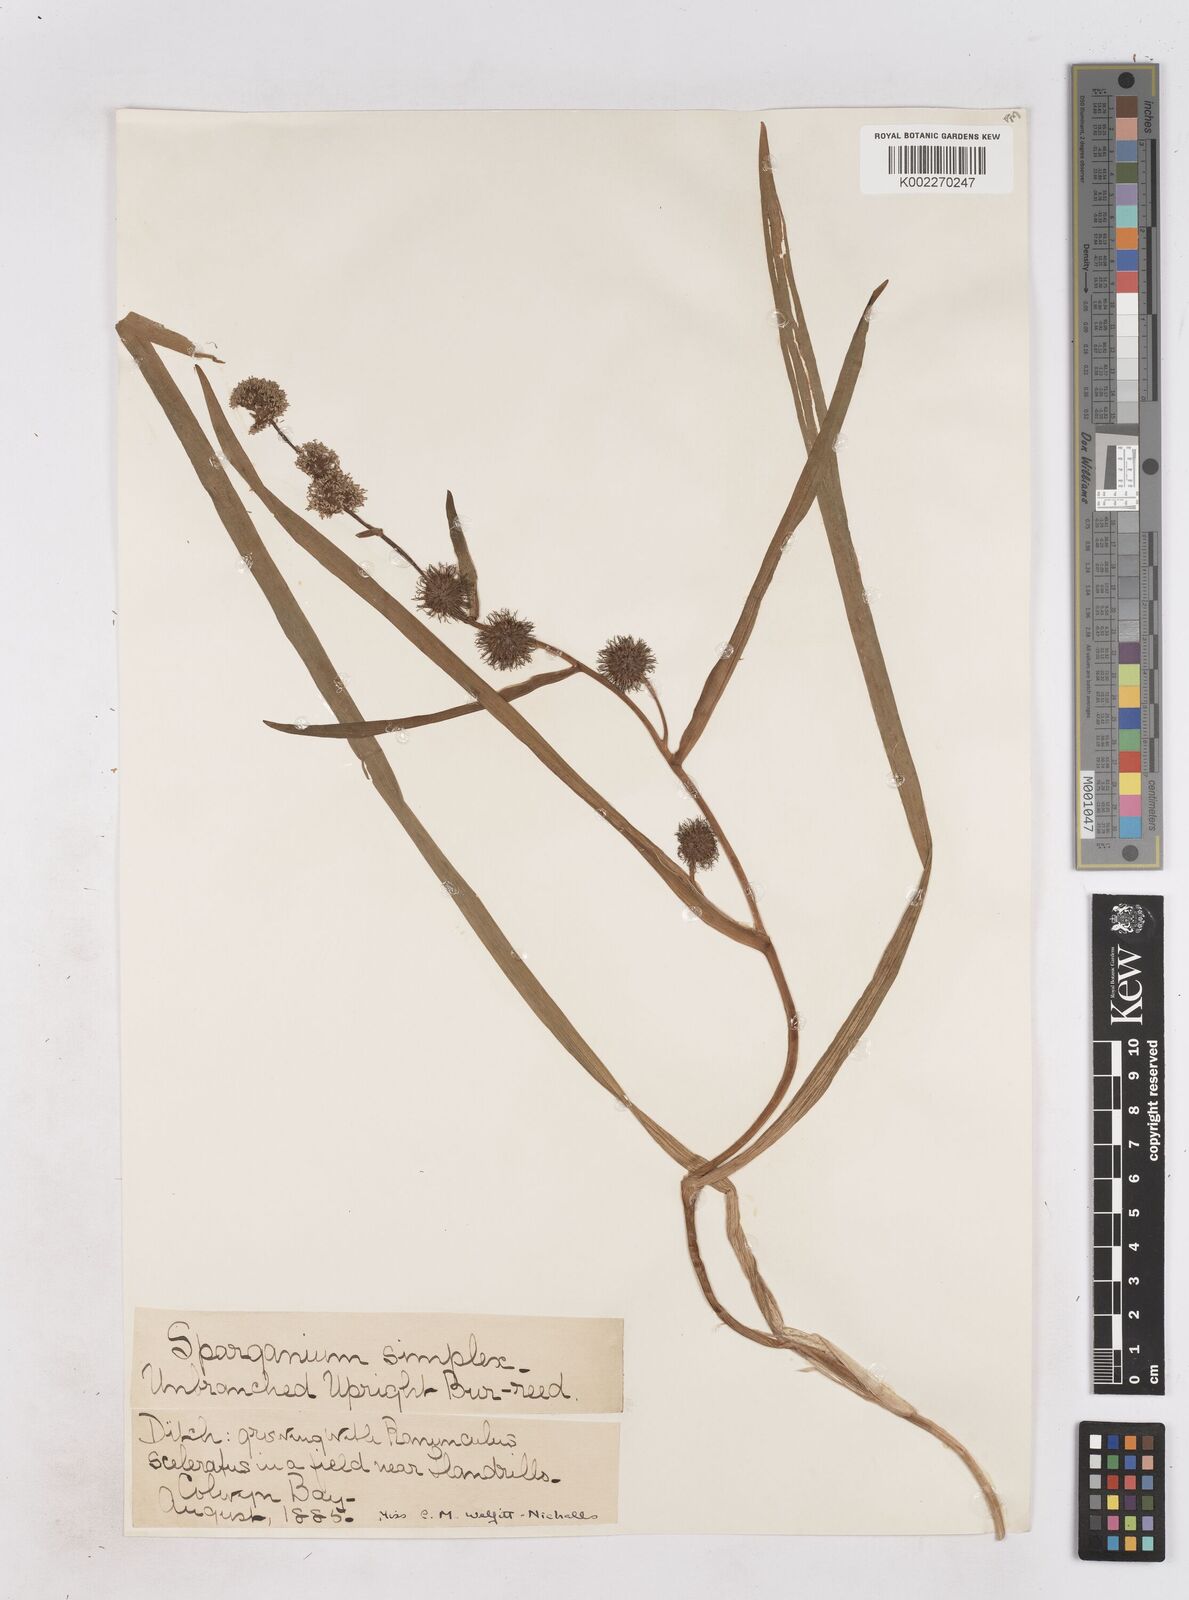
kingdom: Plantae
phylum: Tracheophyta
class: Liliopsida
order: Poales
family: Typhaceae
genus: Sparganium
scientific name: Sparganium emersum
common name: Unbranched bur-reed
